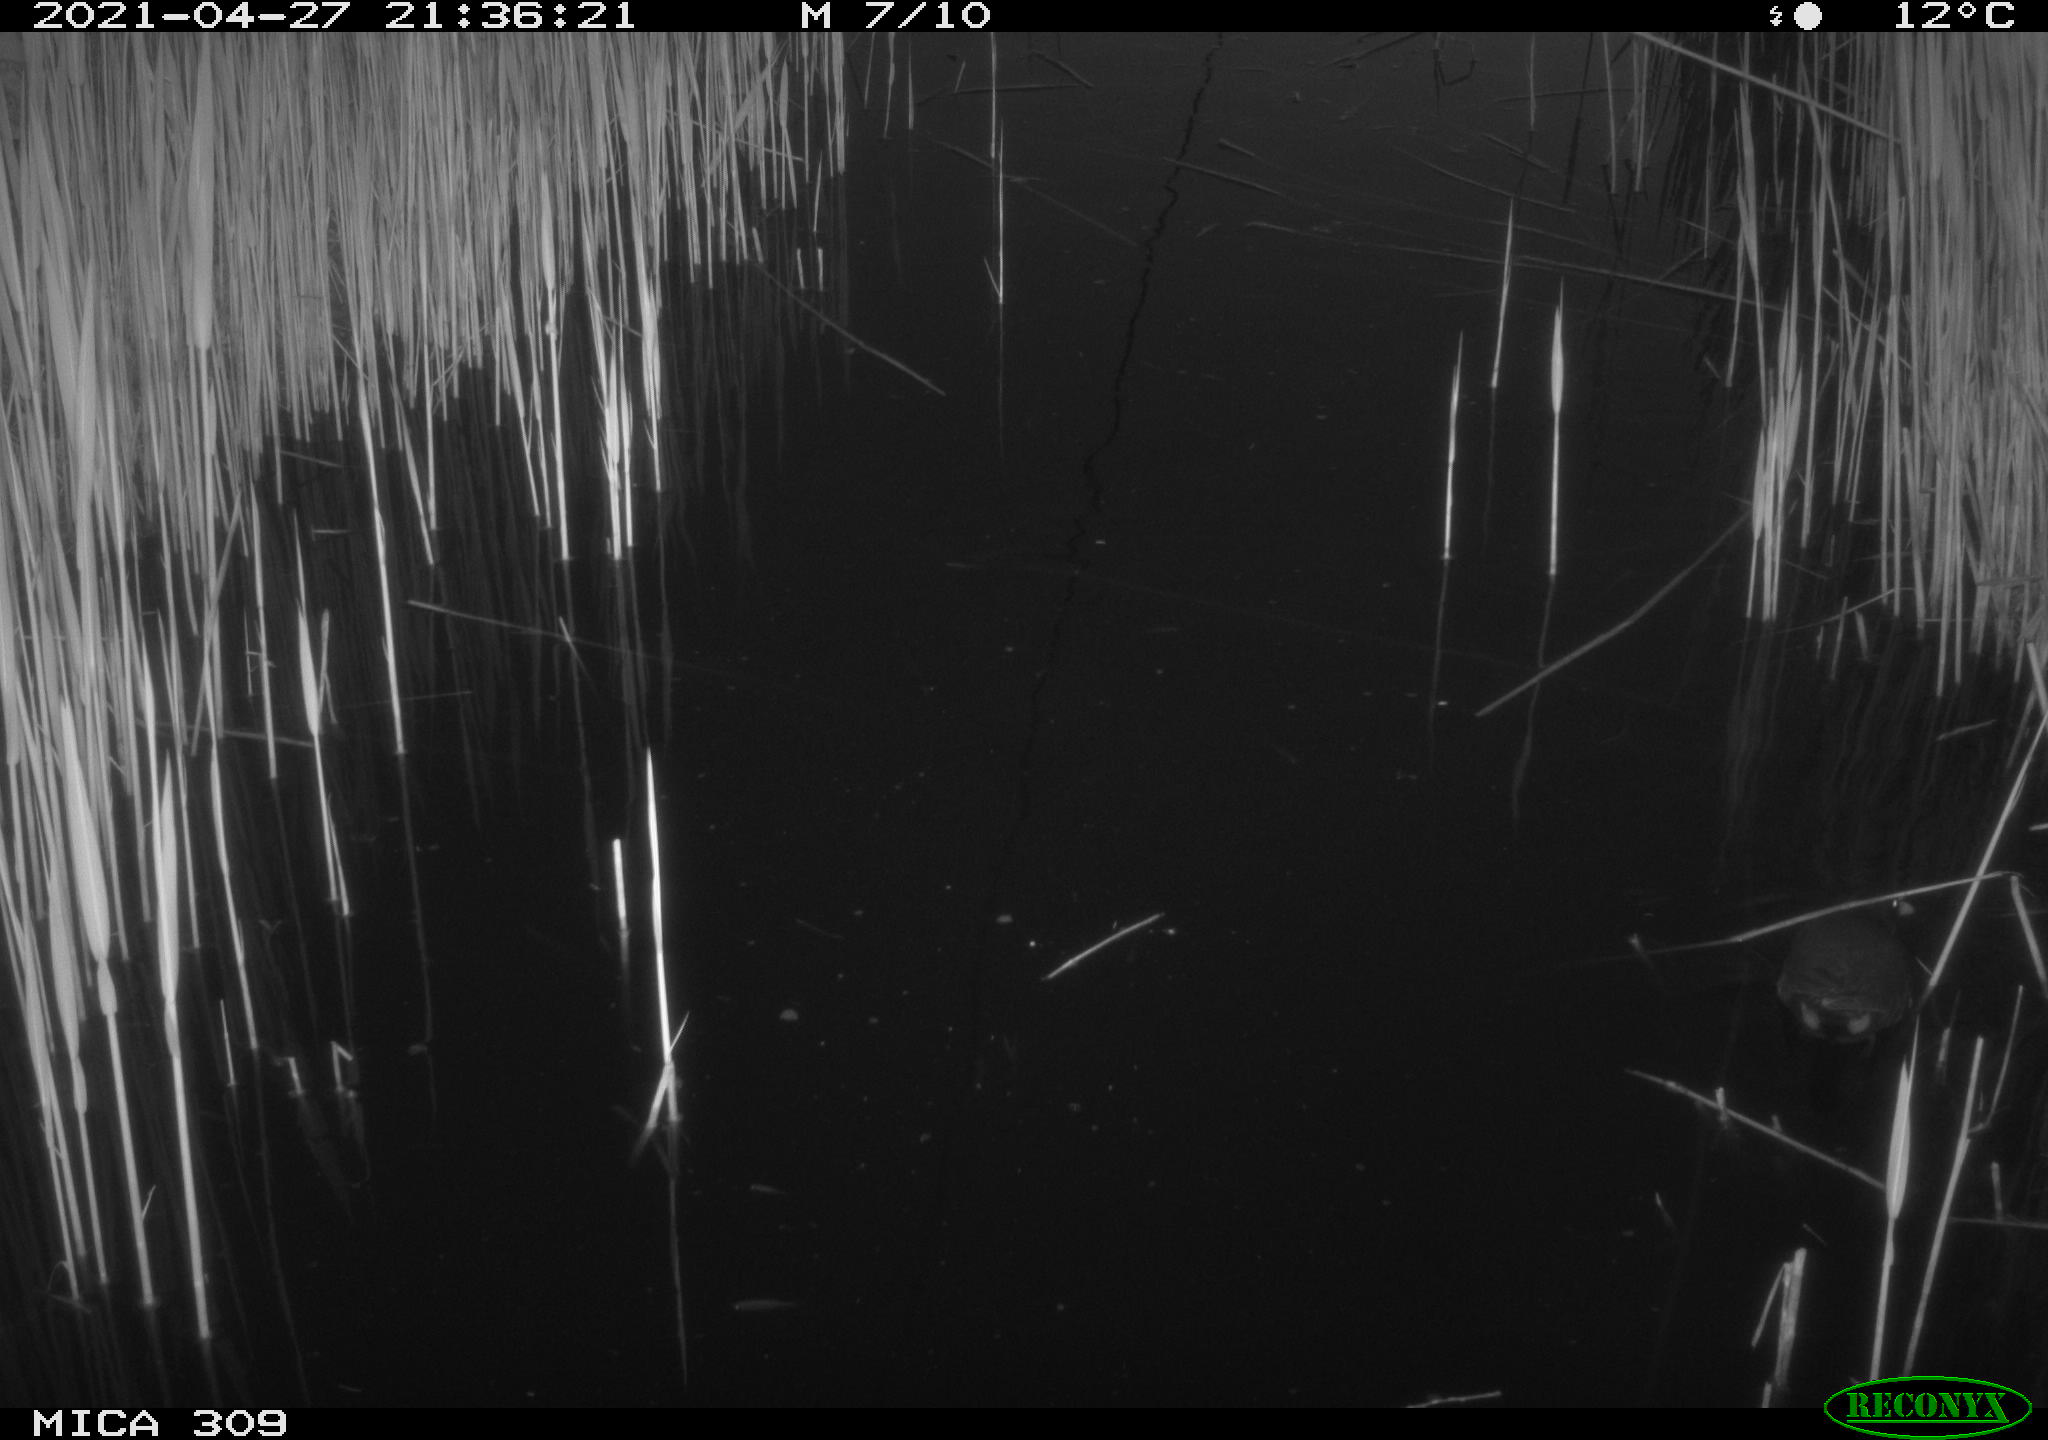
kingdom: Animalia
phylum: Chordata
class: Aves
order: Gruiformes
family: Rallidae
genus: Gallinula
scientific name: Gallinula chloropus
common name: Common moorhen
